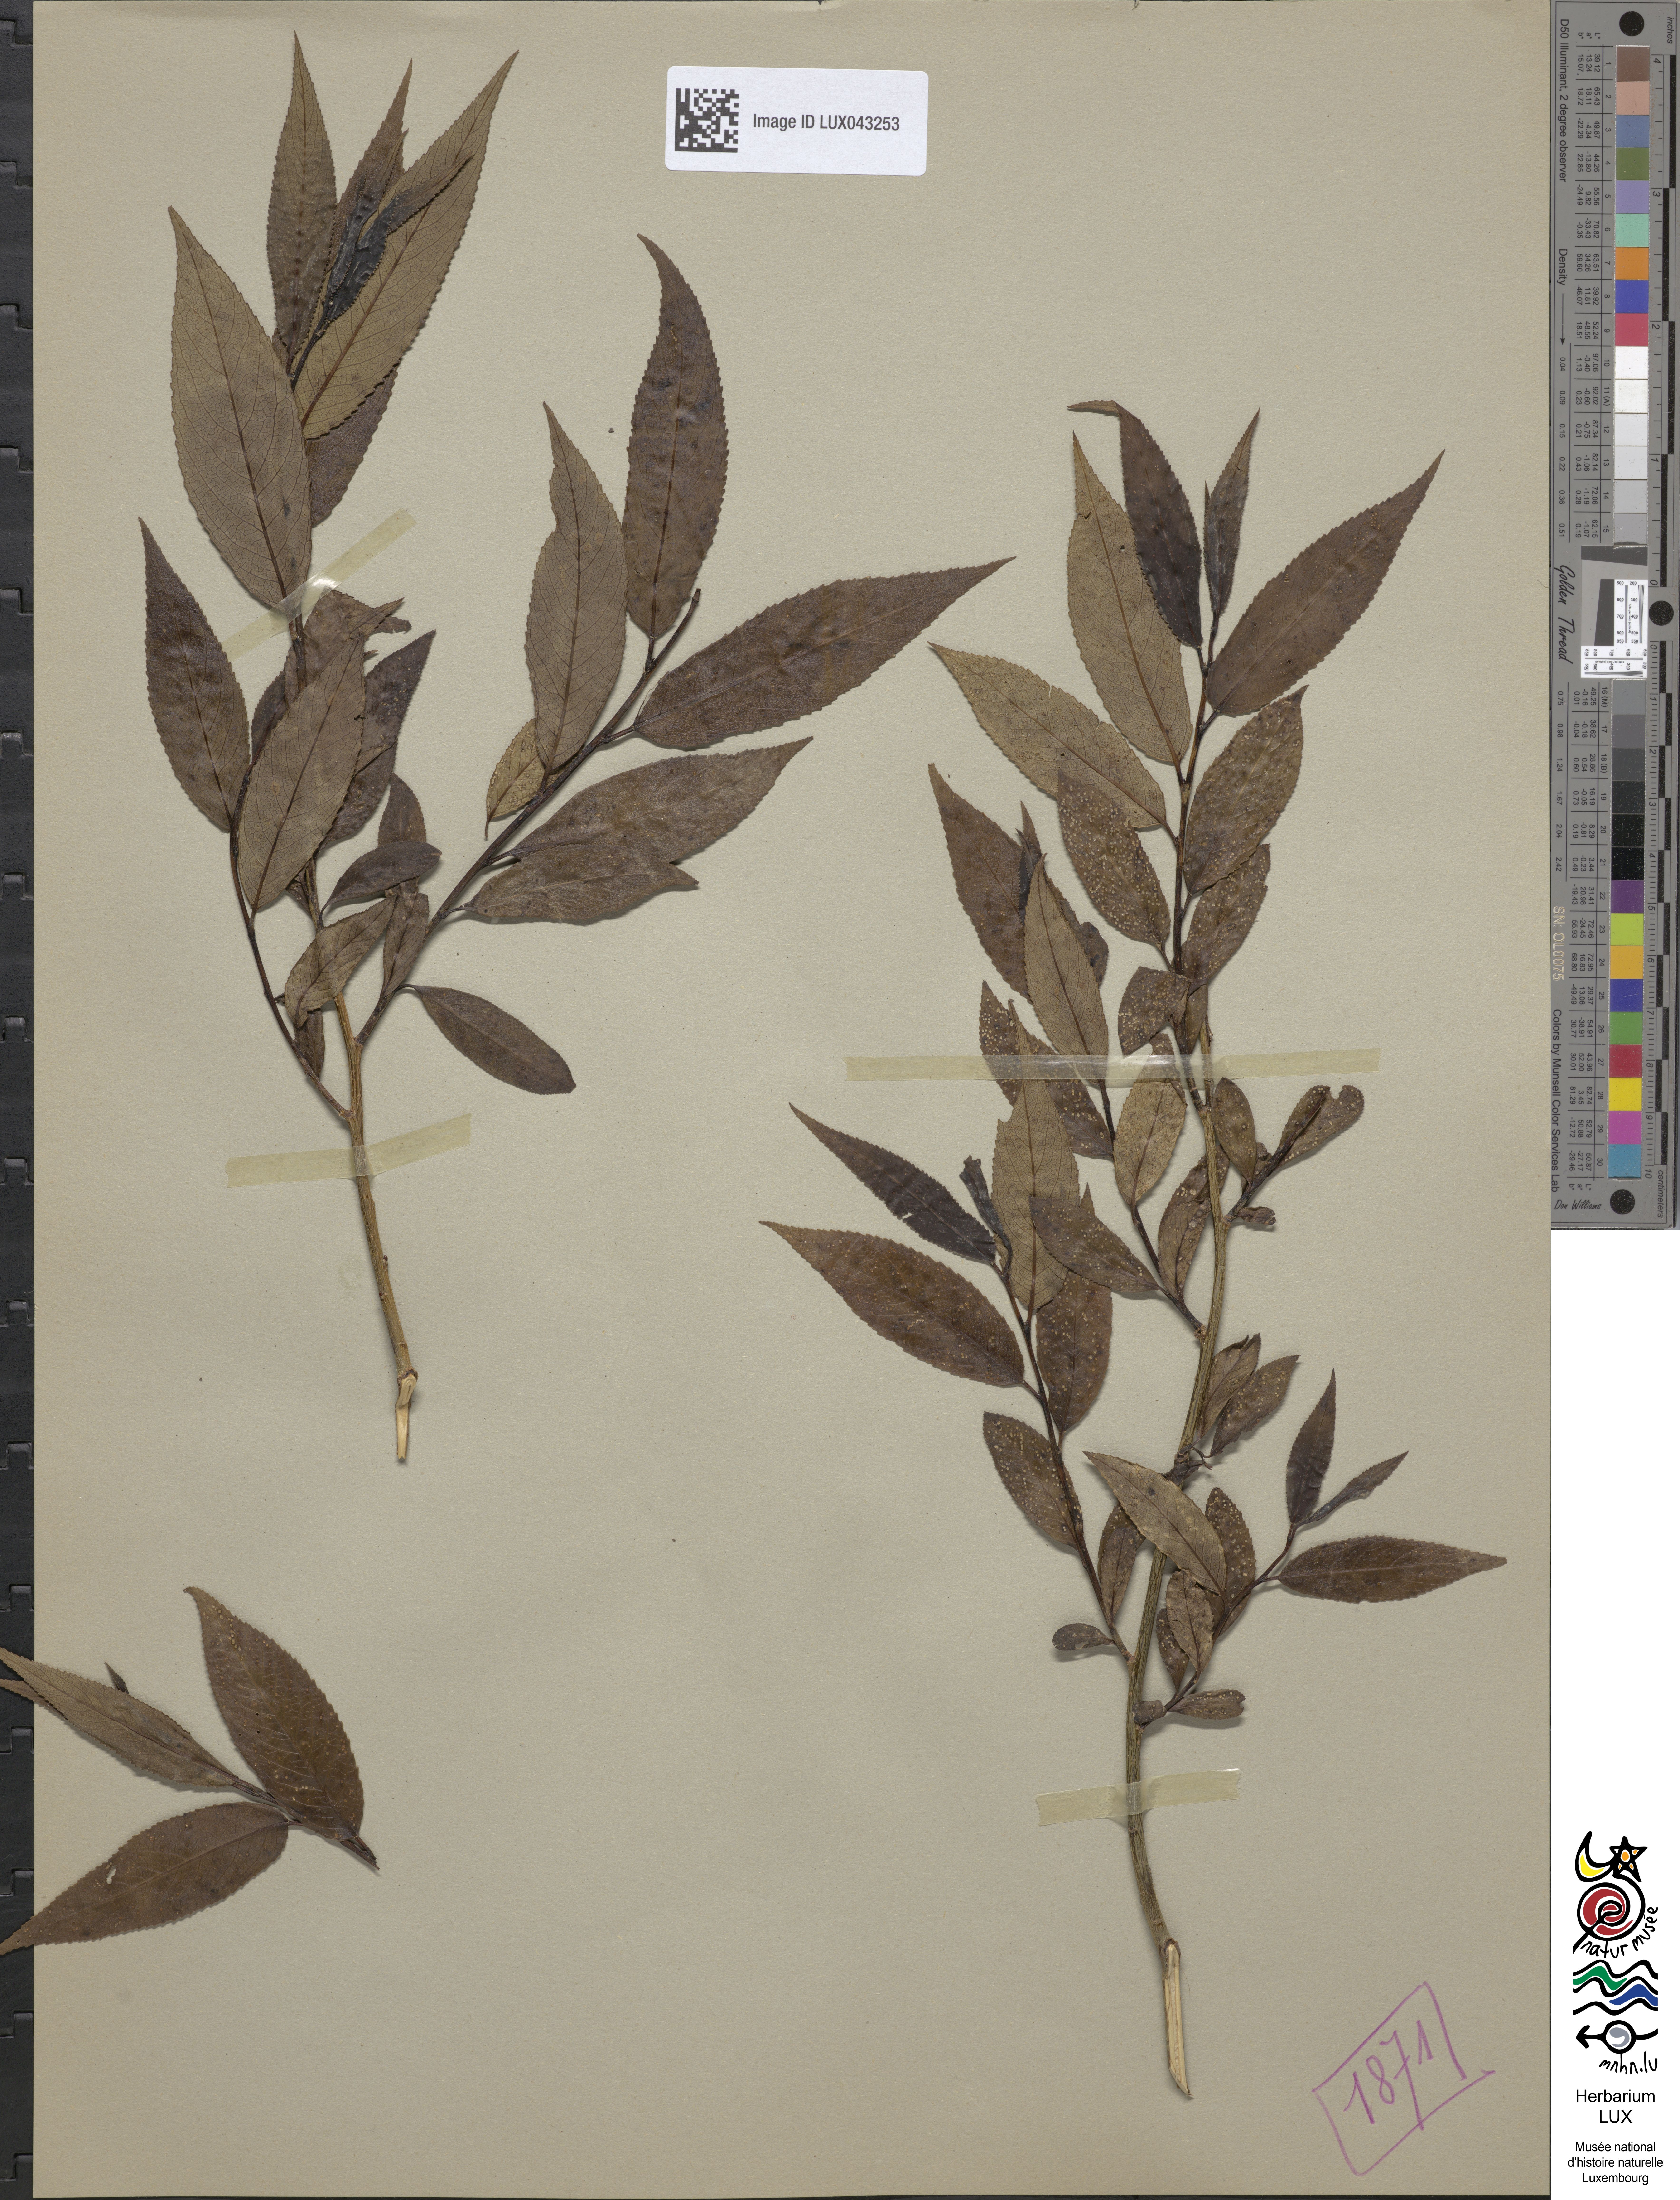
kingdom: Plantae
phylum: Tracheophyta
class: Magnoliopsida
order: Malpighiales
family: Salicaceae
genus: Salix
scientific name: Salix
